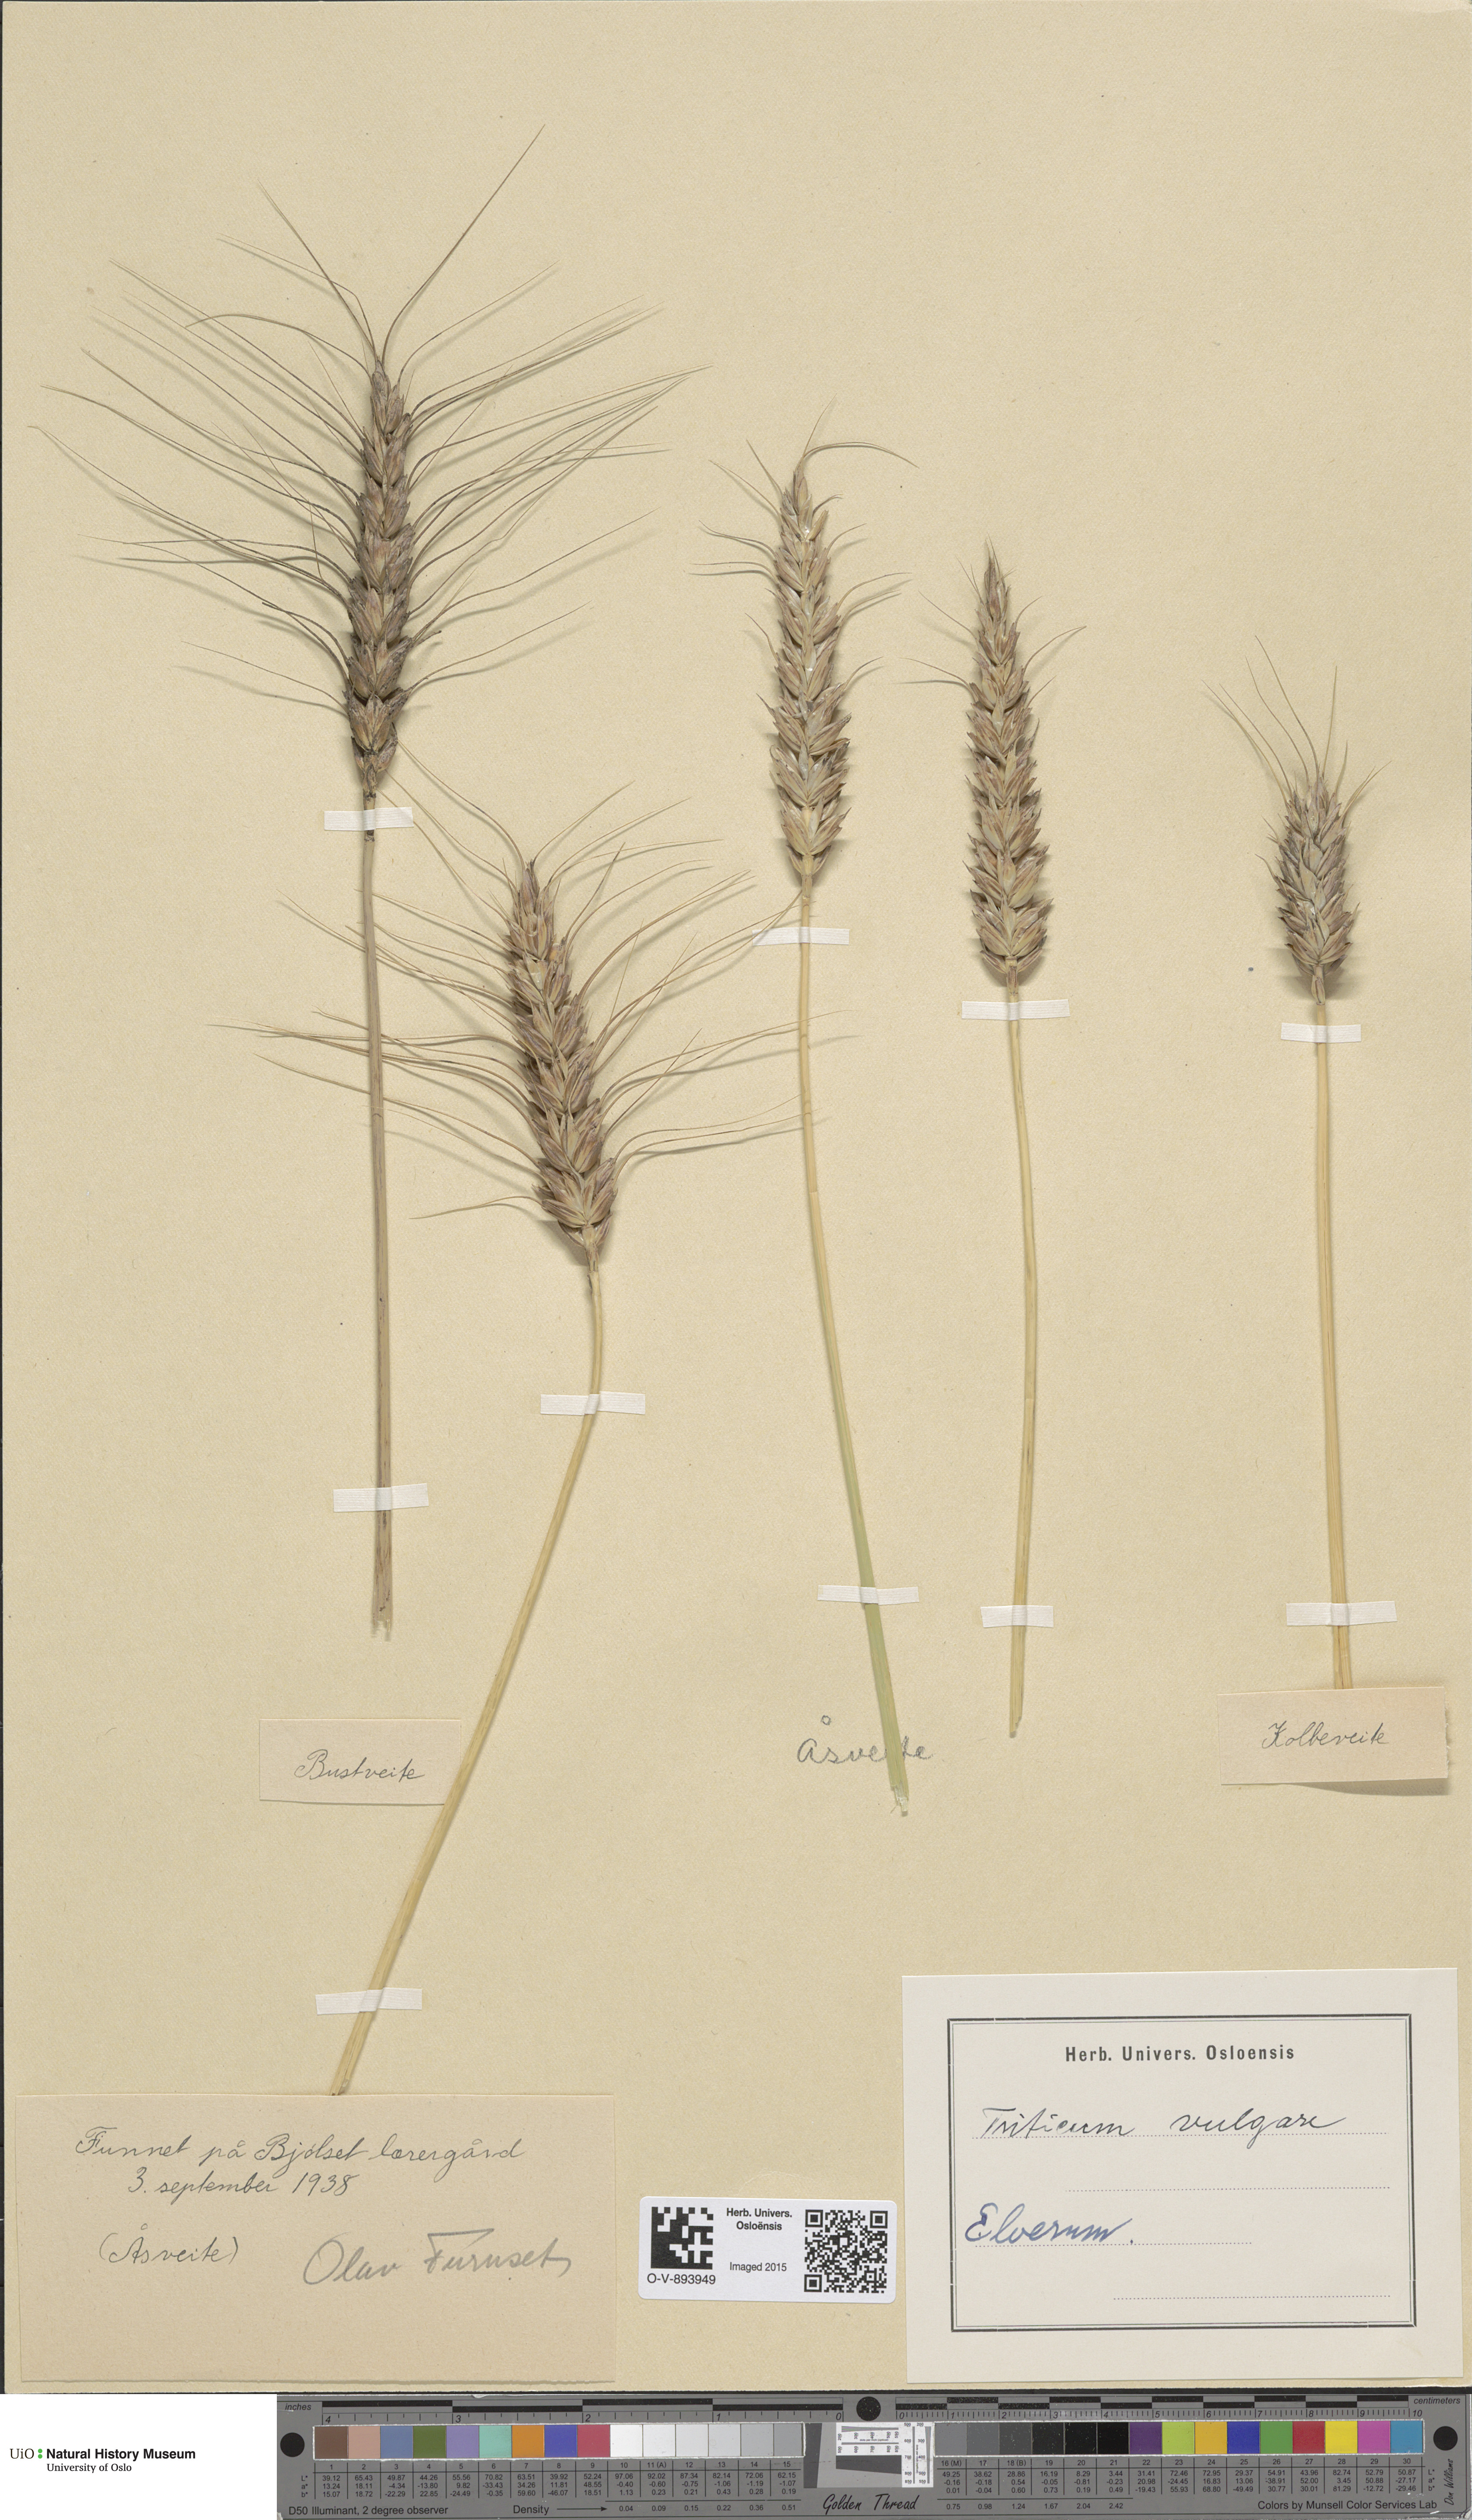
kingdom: Plantae
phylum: Tracheophyta
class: Liliopsida
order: Poales
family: Poaceae
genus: Triticum
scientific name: Triticum aestivum
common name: Common wheat
